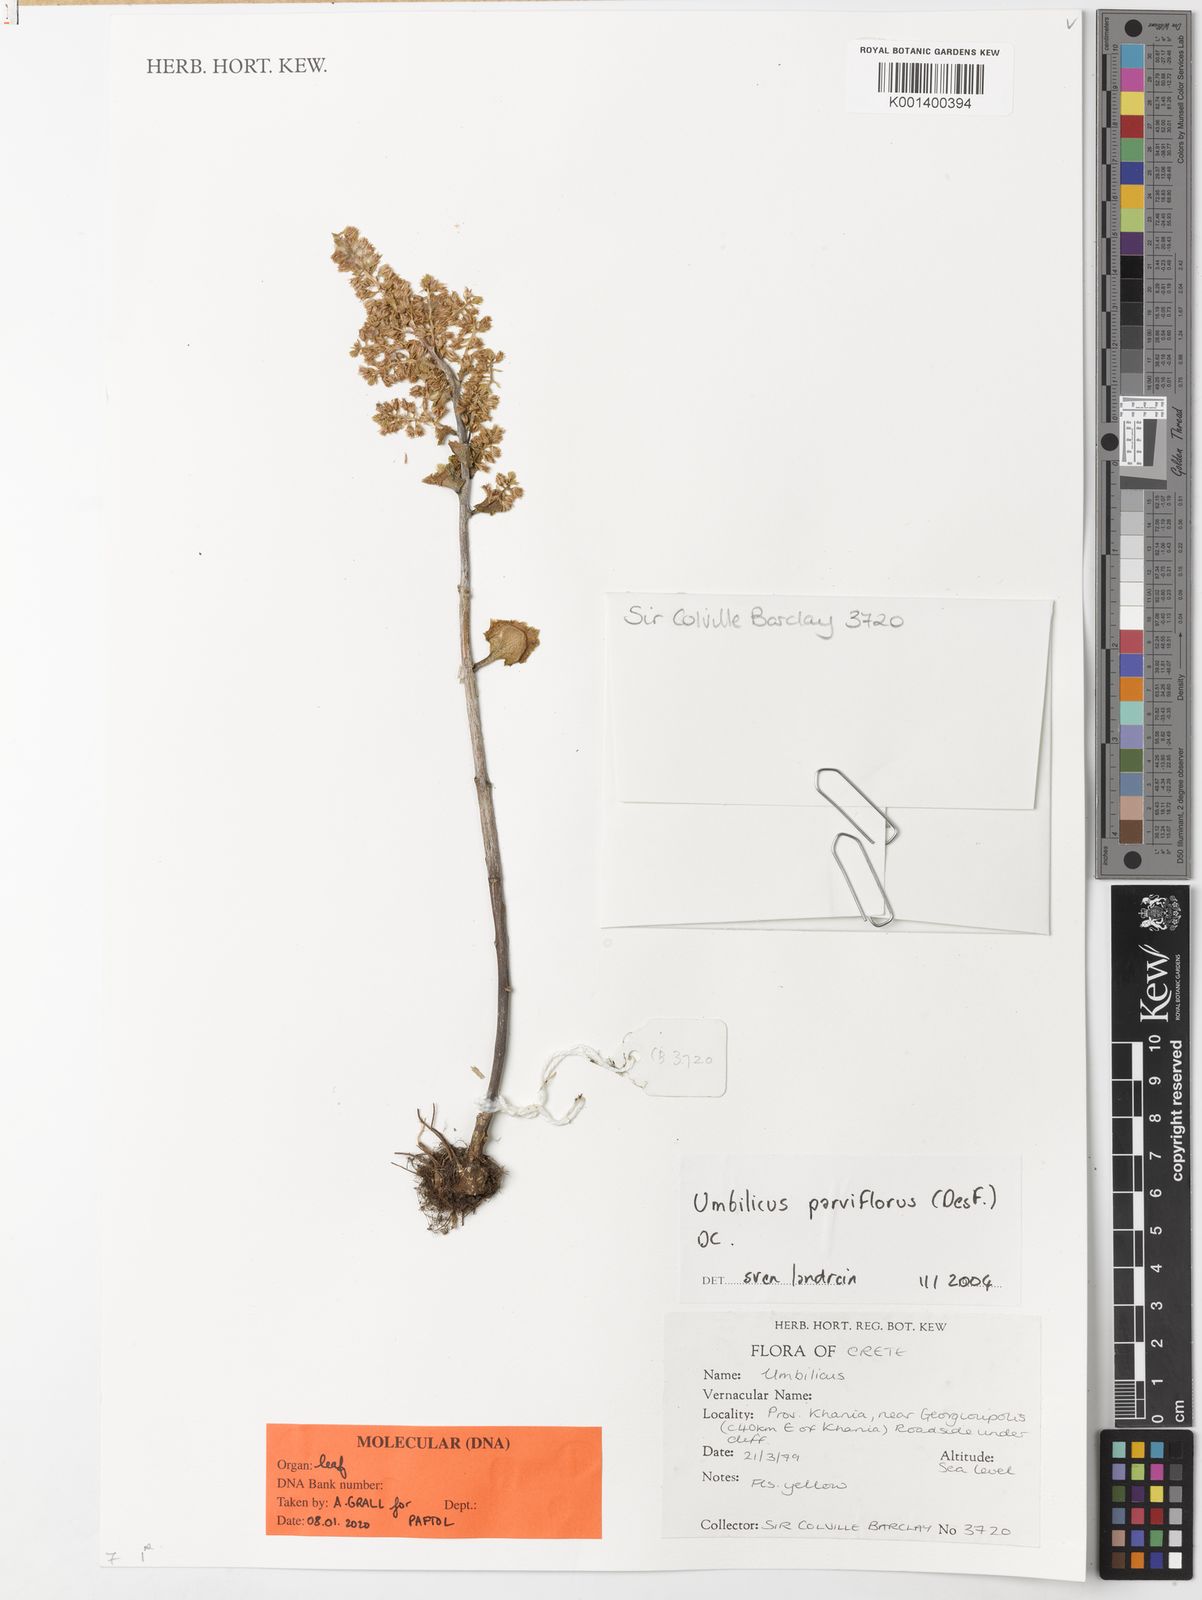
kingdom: Plantae
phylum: Tracheophyta
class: Magnoliopsida
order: Saxifragales
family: Crassulaceae
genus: Umbilicus
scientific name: Umbilicus parviflorus
